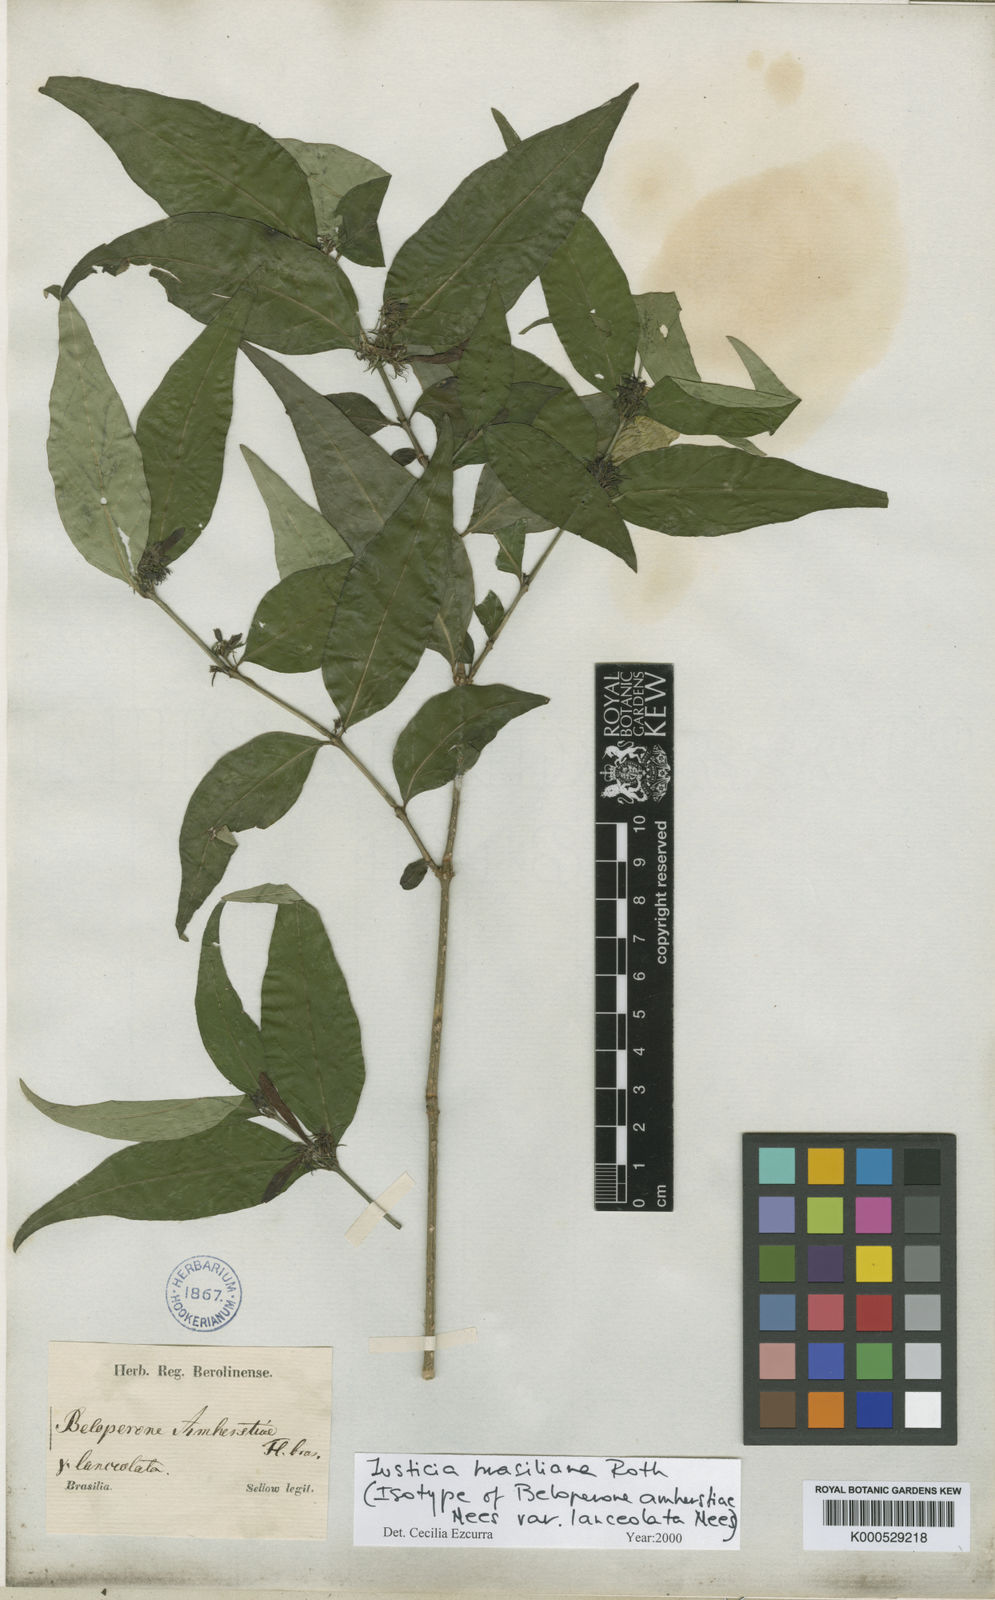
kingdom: Plantae
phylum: Tracheophyta
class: Magnoliopsida
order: Lamiales
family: Acanthaceae
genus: Justicia
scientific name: Justicia brasiliana
